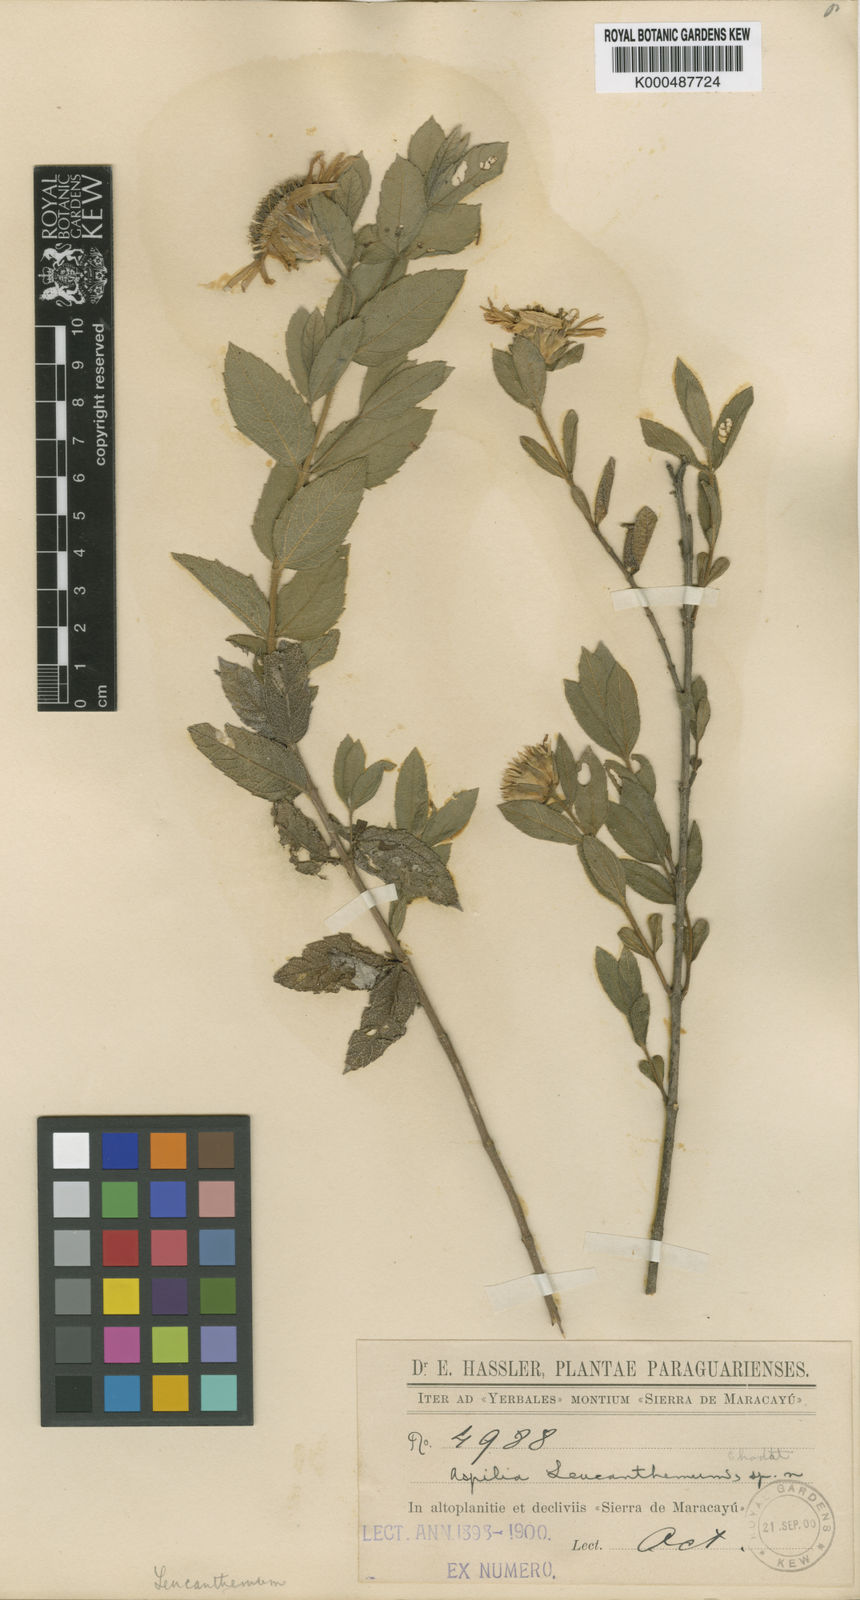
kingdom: Plantae
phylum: Tracheophyta
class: Magnoliopsida
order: Asterales
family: Asteraceae
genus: Wedelia
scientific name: Wedelia leucanthema
